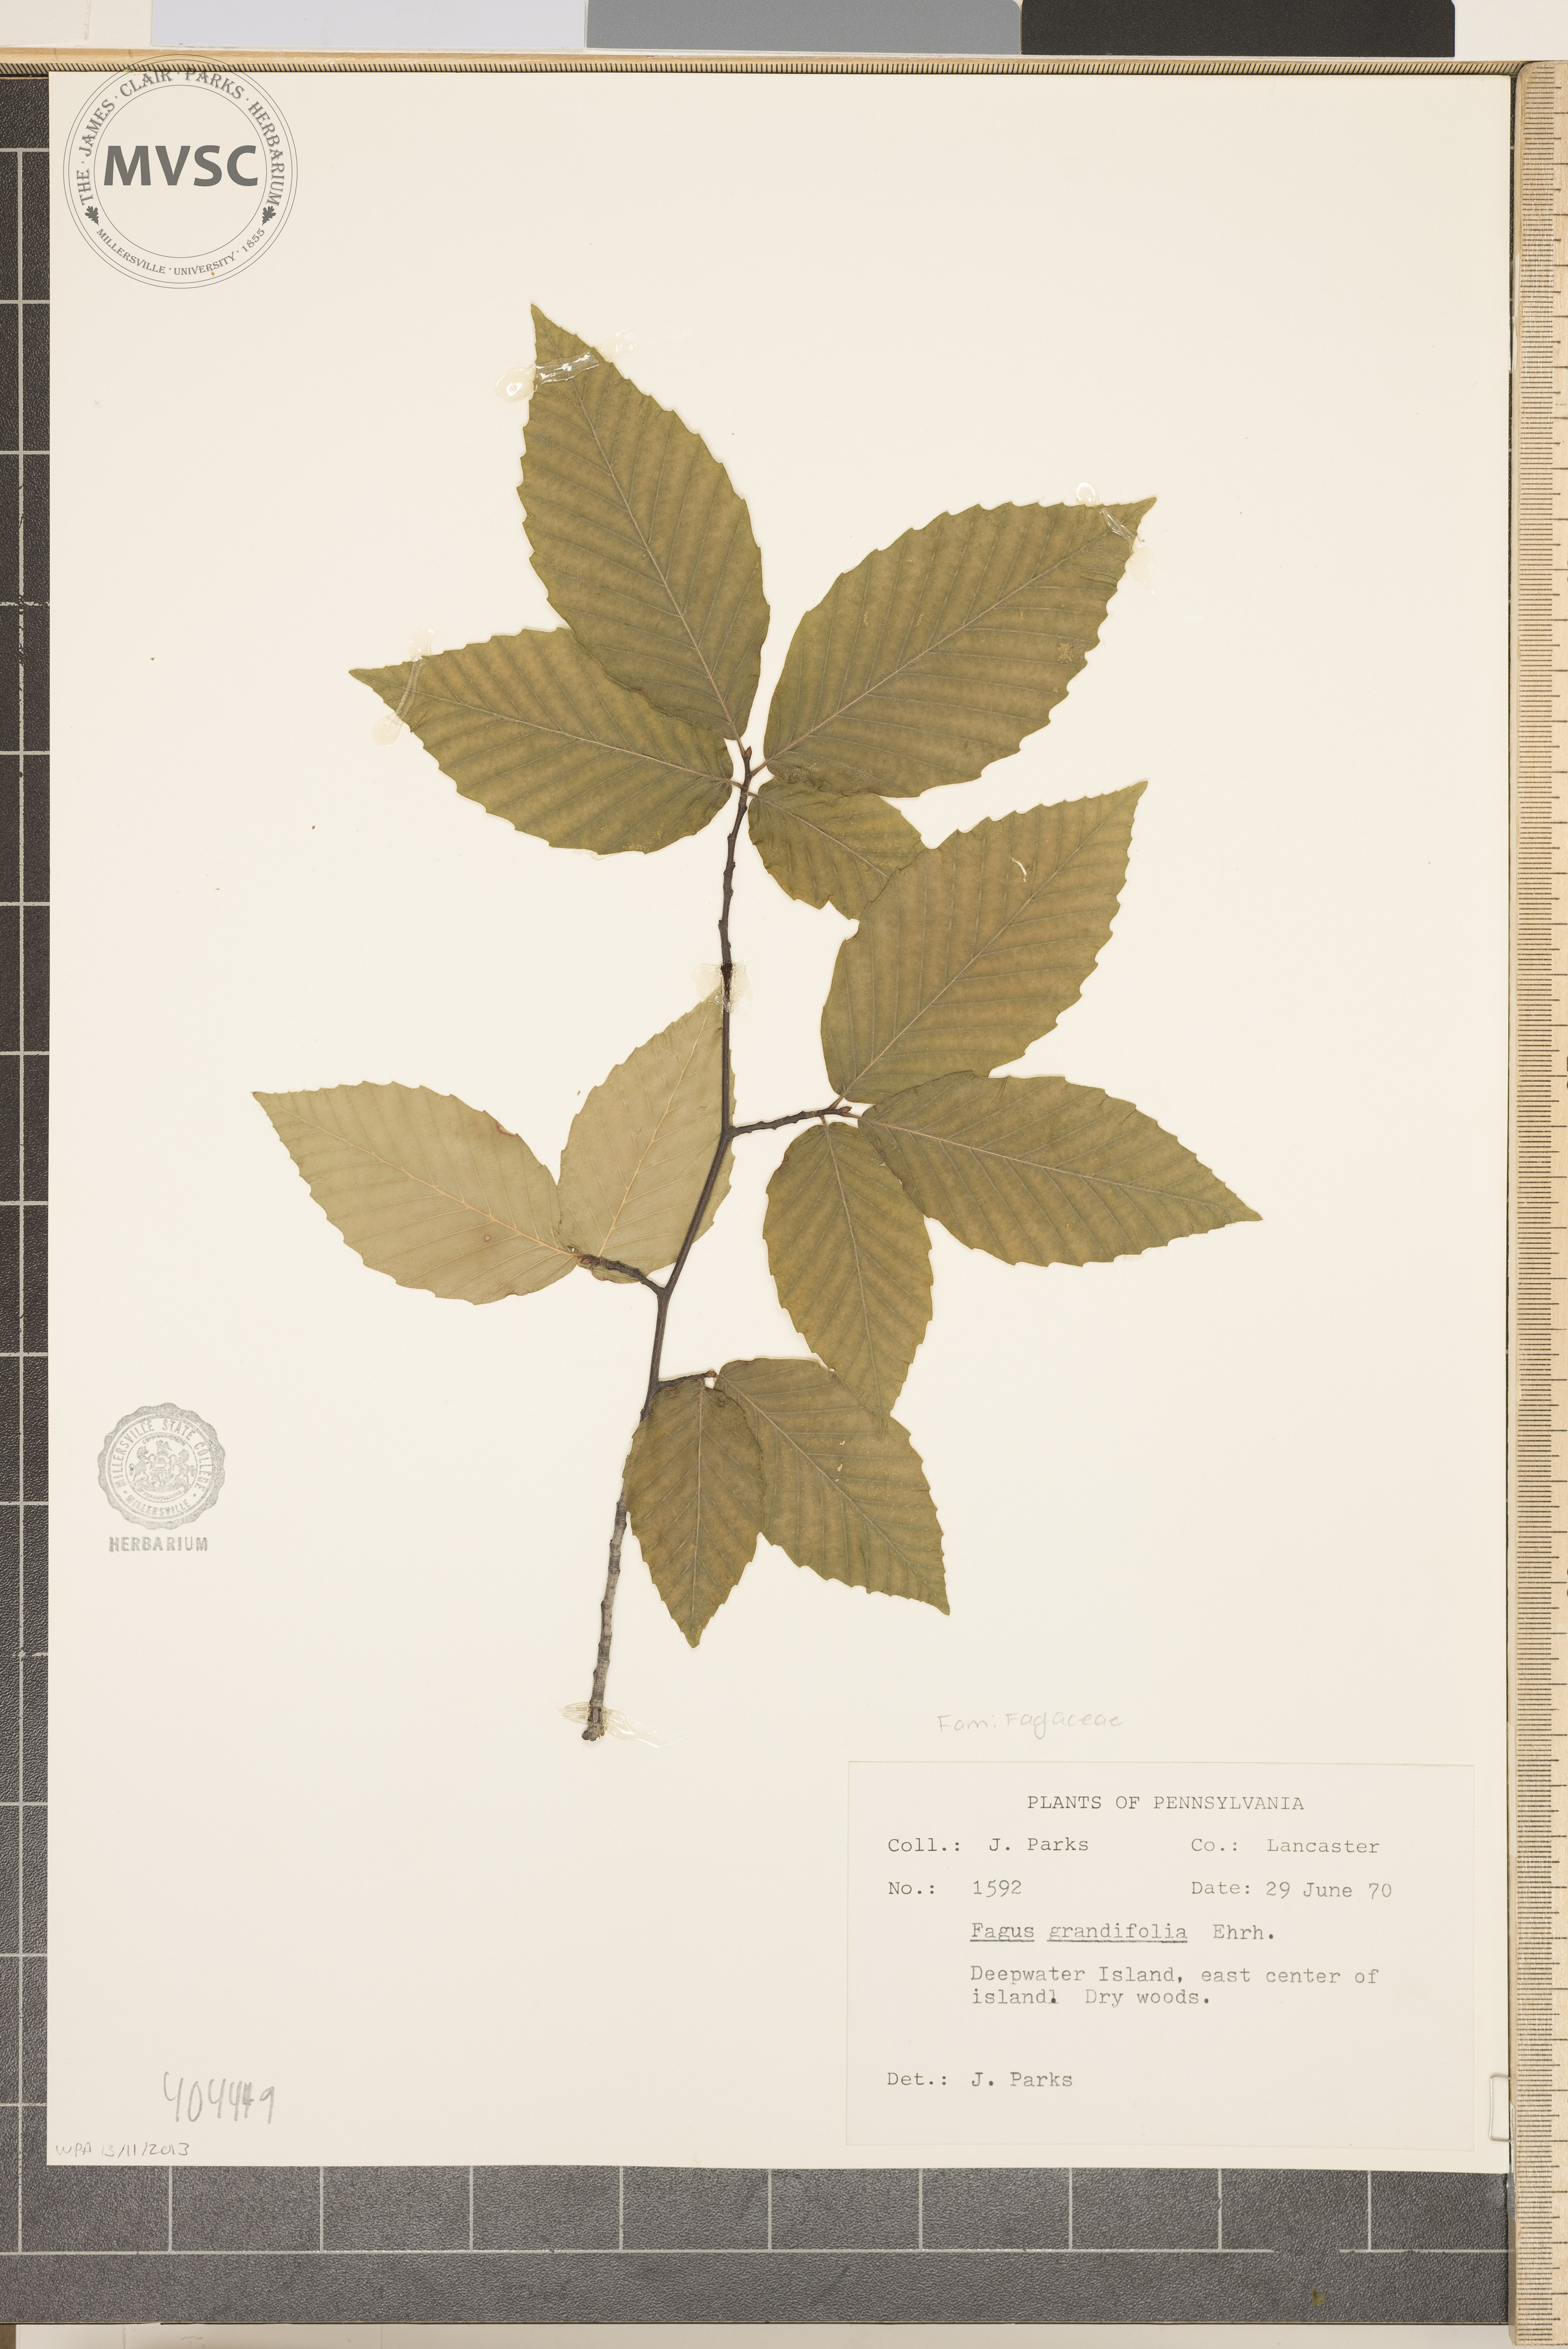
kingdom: Plantae
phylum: Tracheophyta
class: Magnoliopsida
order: Fagales
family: Fagaceae
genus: Fagus
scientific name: Fagus grandifolia
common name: American beech
